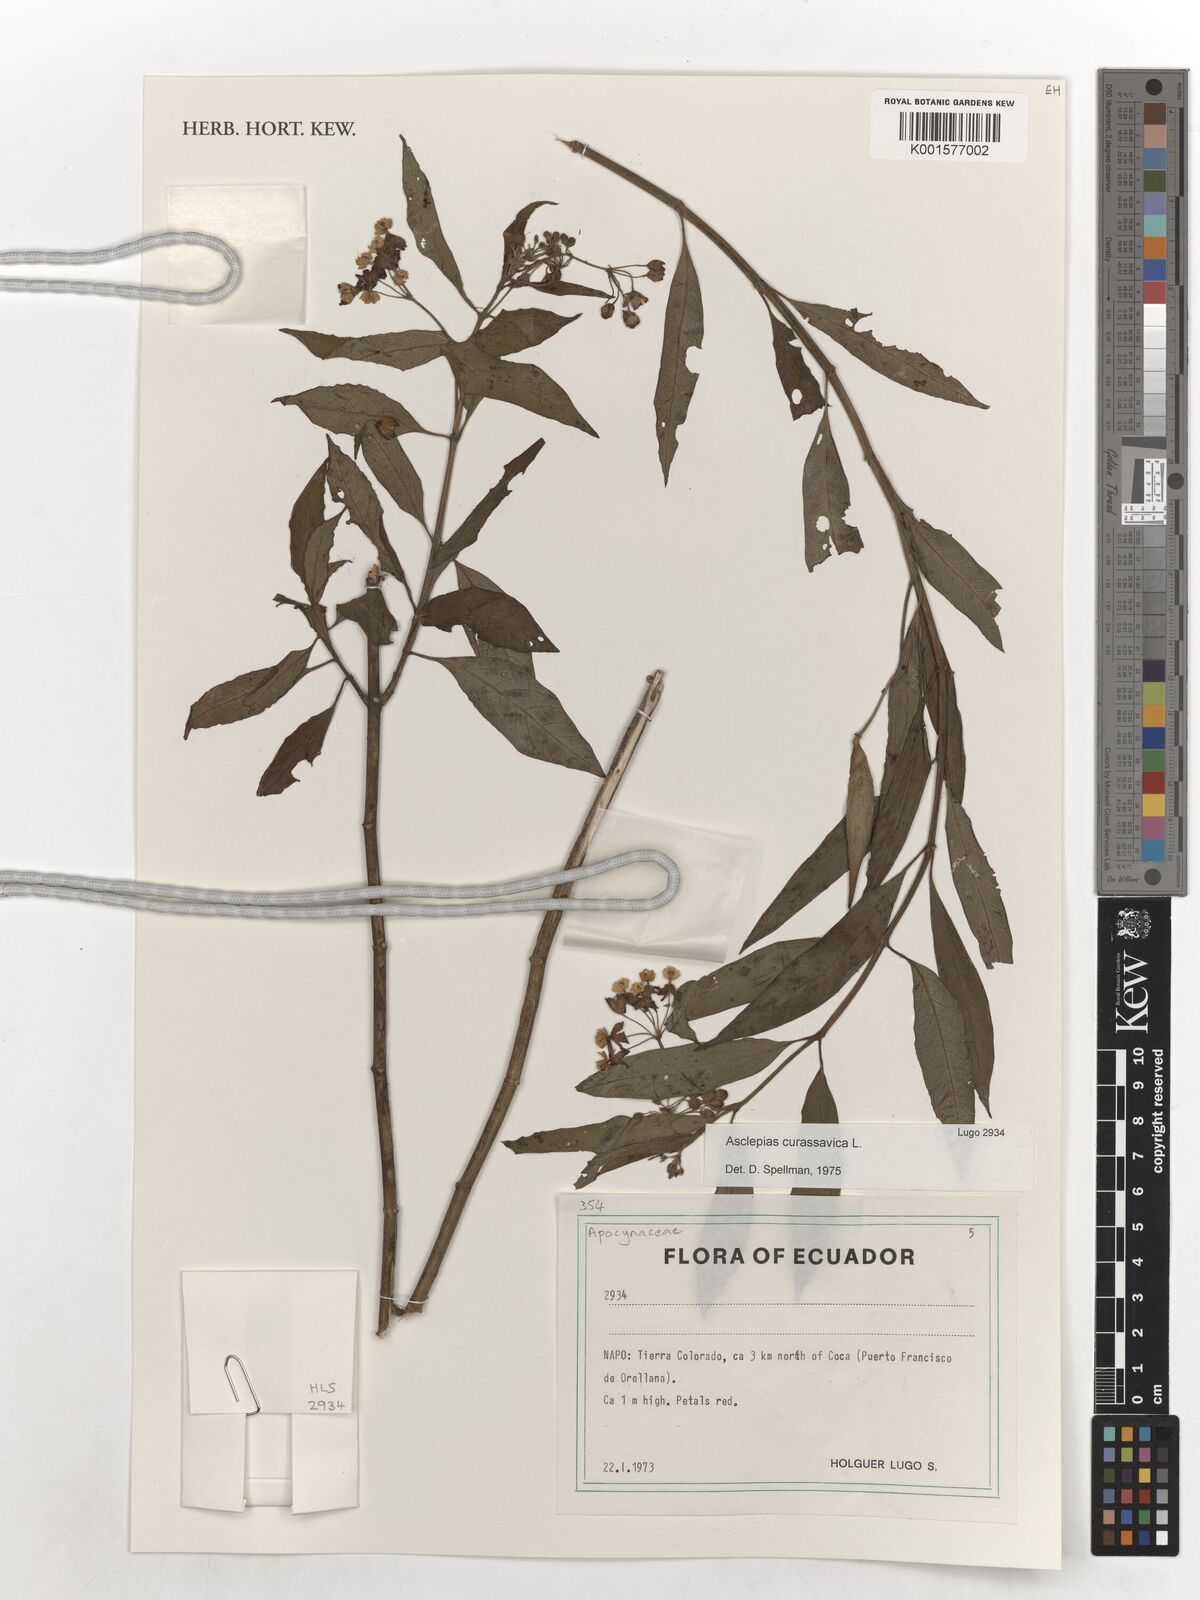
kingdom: Plantae
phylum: Tracheophyta
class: Magnoliopsida
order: Gentianales
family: Apocynaceae
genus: Asclepias
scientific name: Asclepias curassavica
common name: Bloodflower
